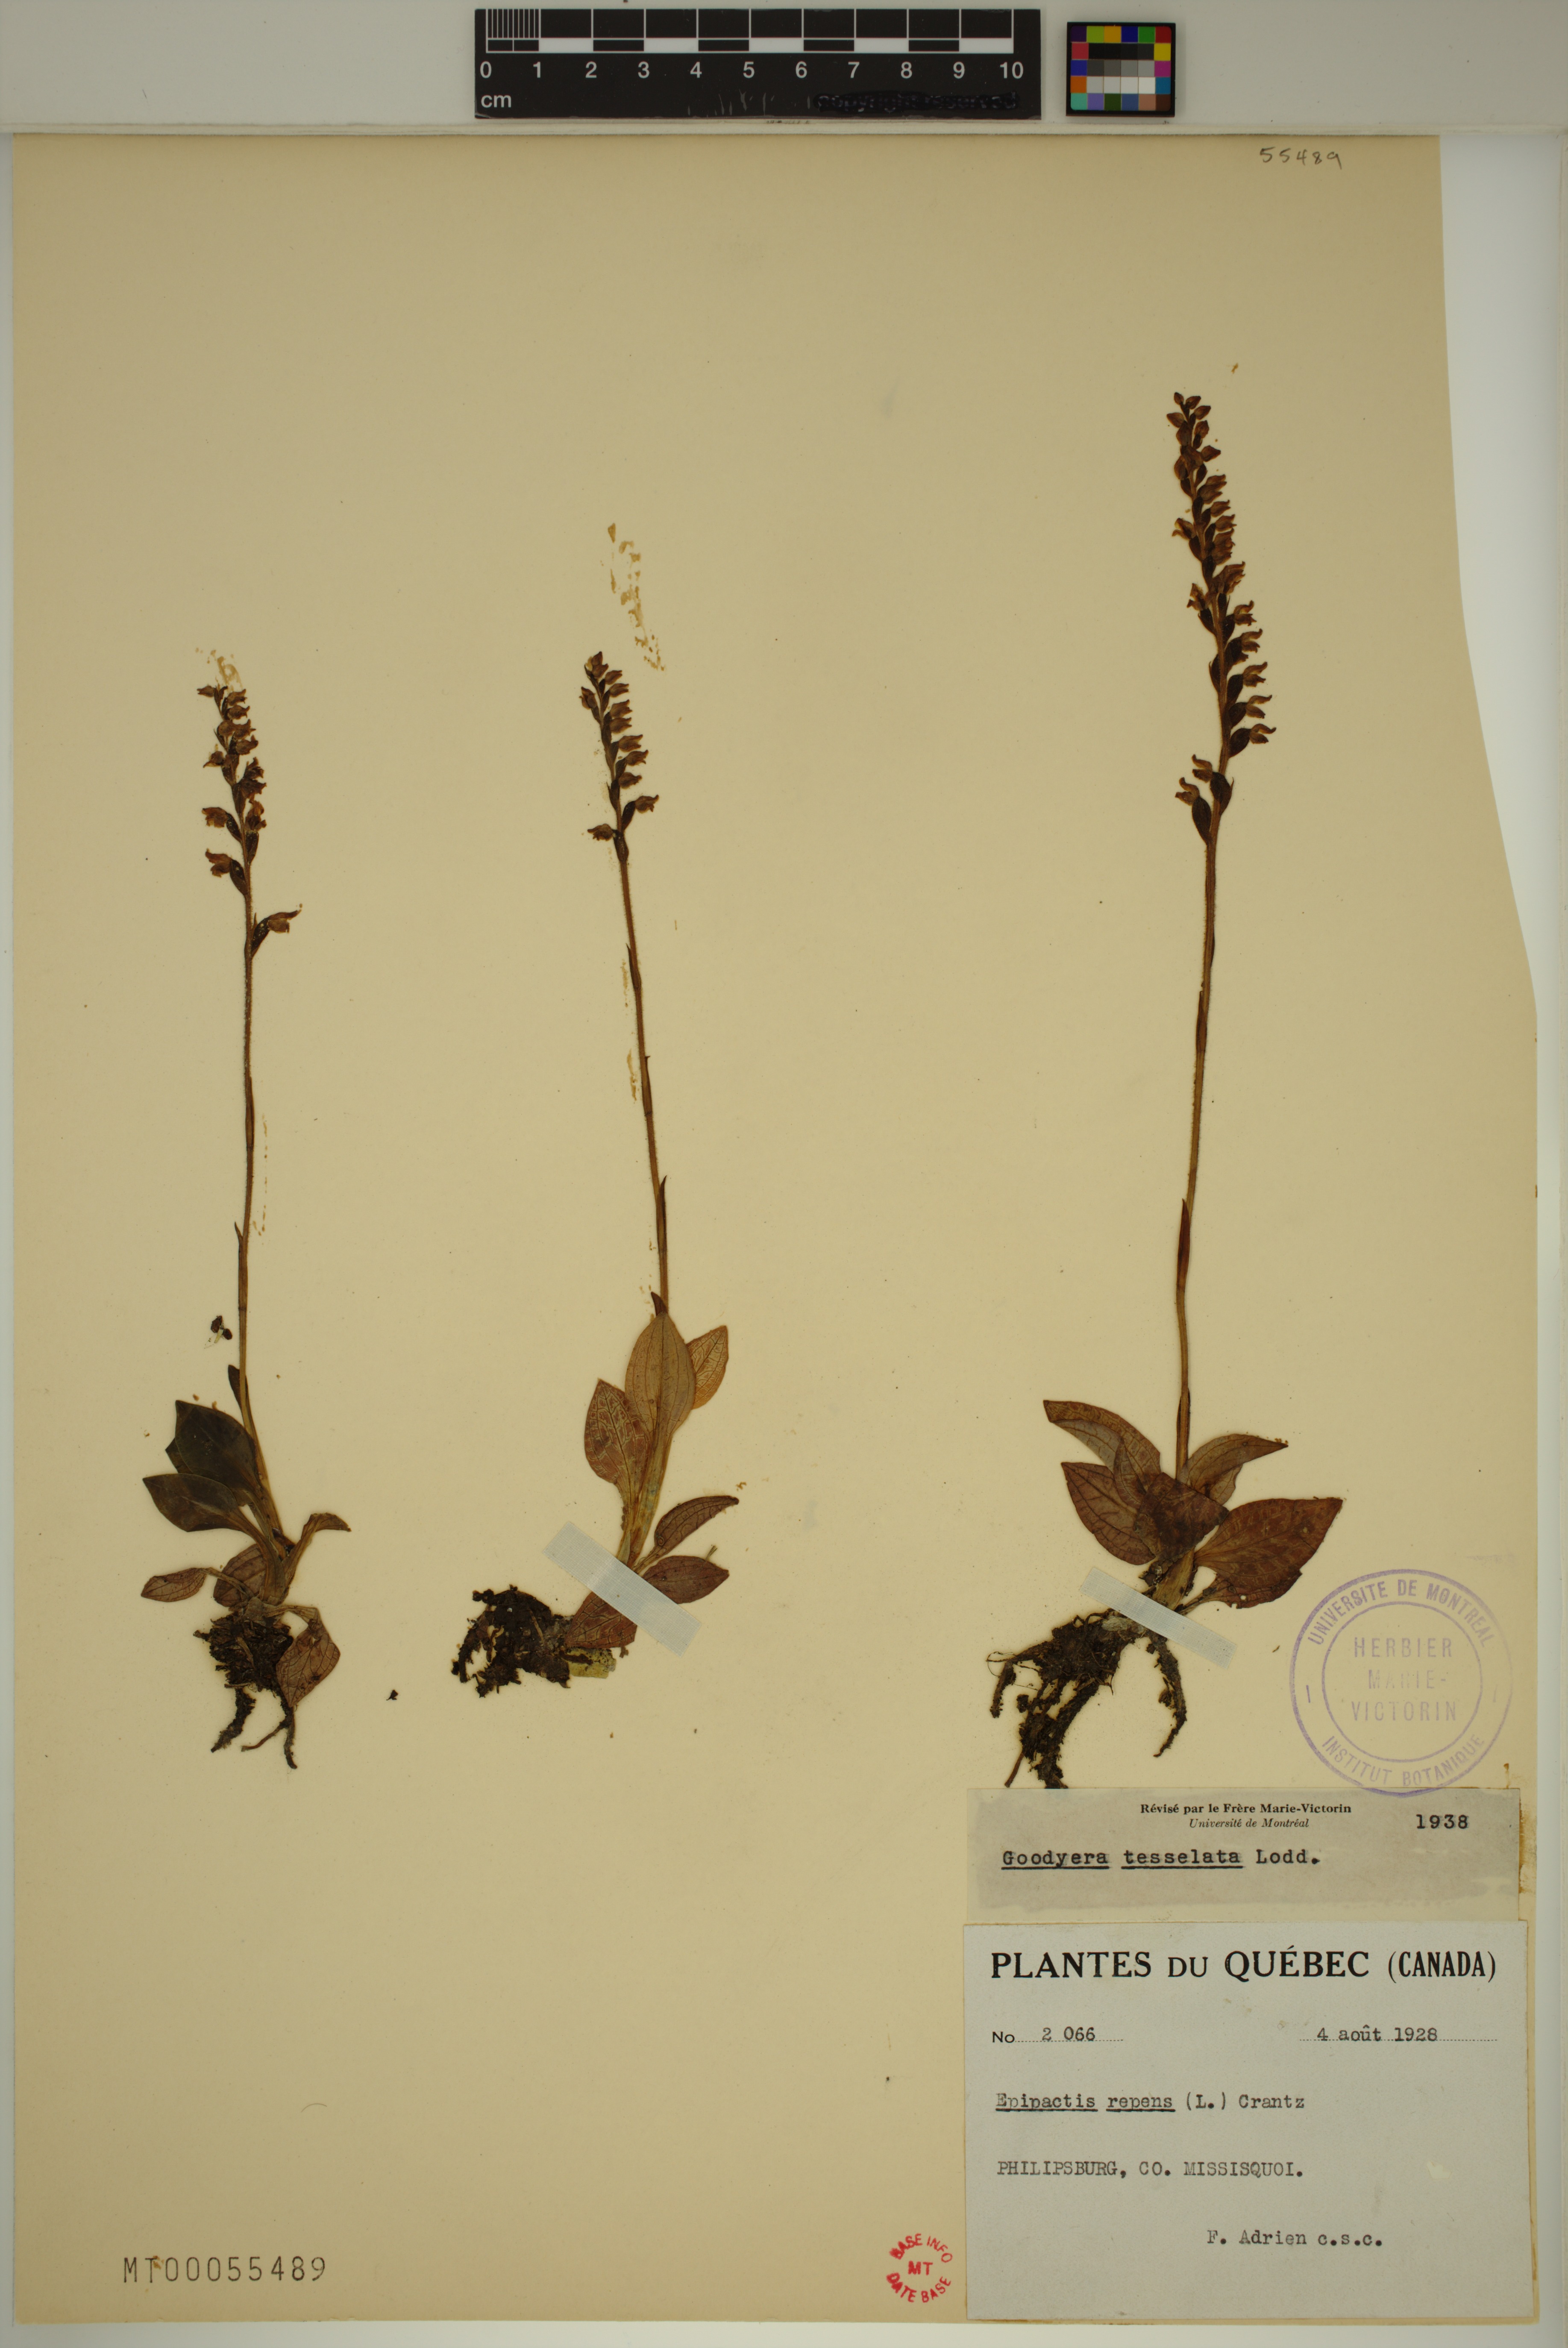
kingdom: Plantae
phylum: Tracheophyta
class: Liliopsida
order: Asparagales
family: Orchidaceae
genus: Goodyera
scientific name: Goodyera tesselata
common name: Checkered rattlesnake-plantain
